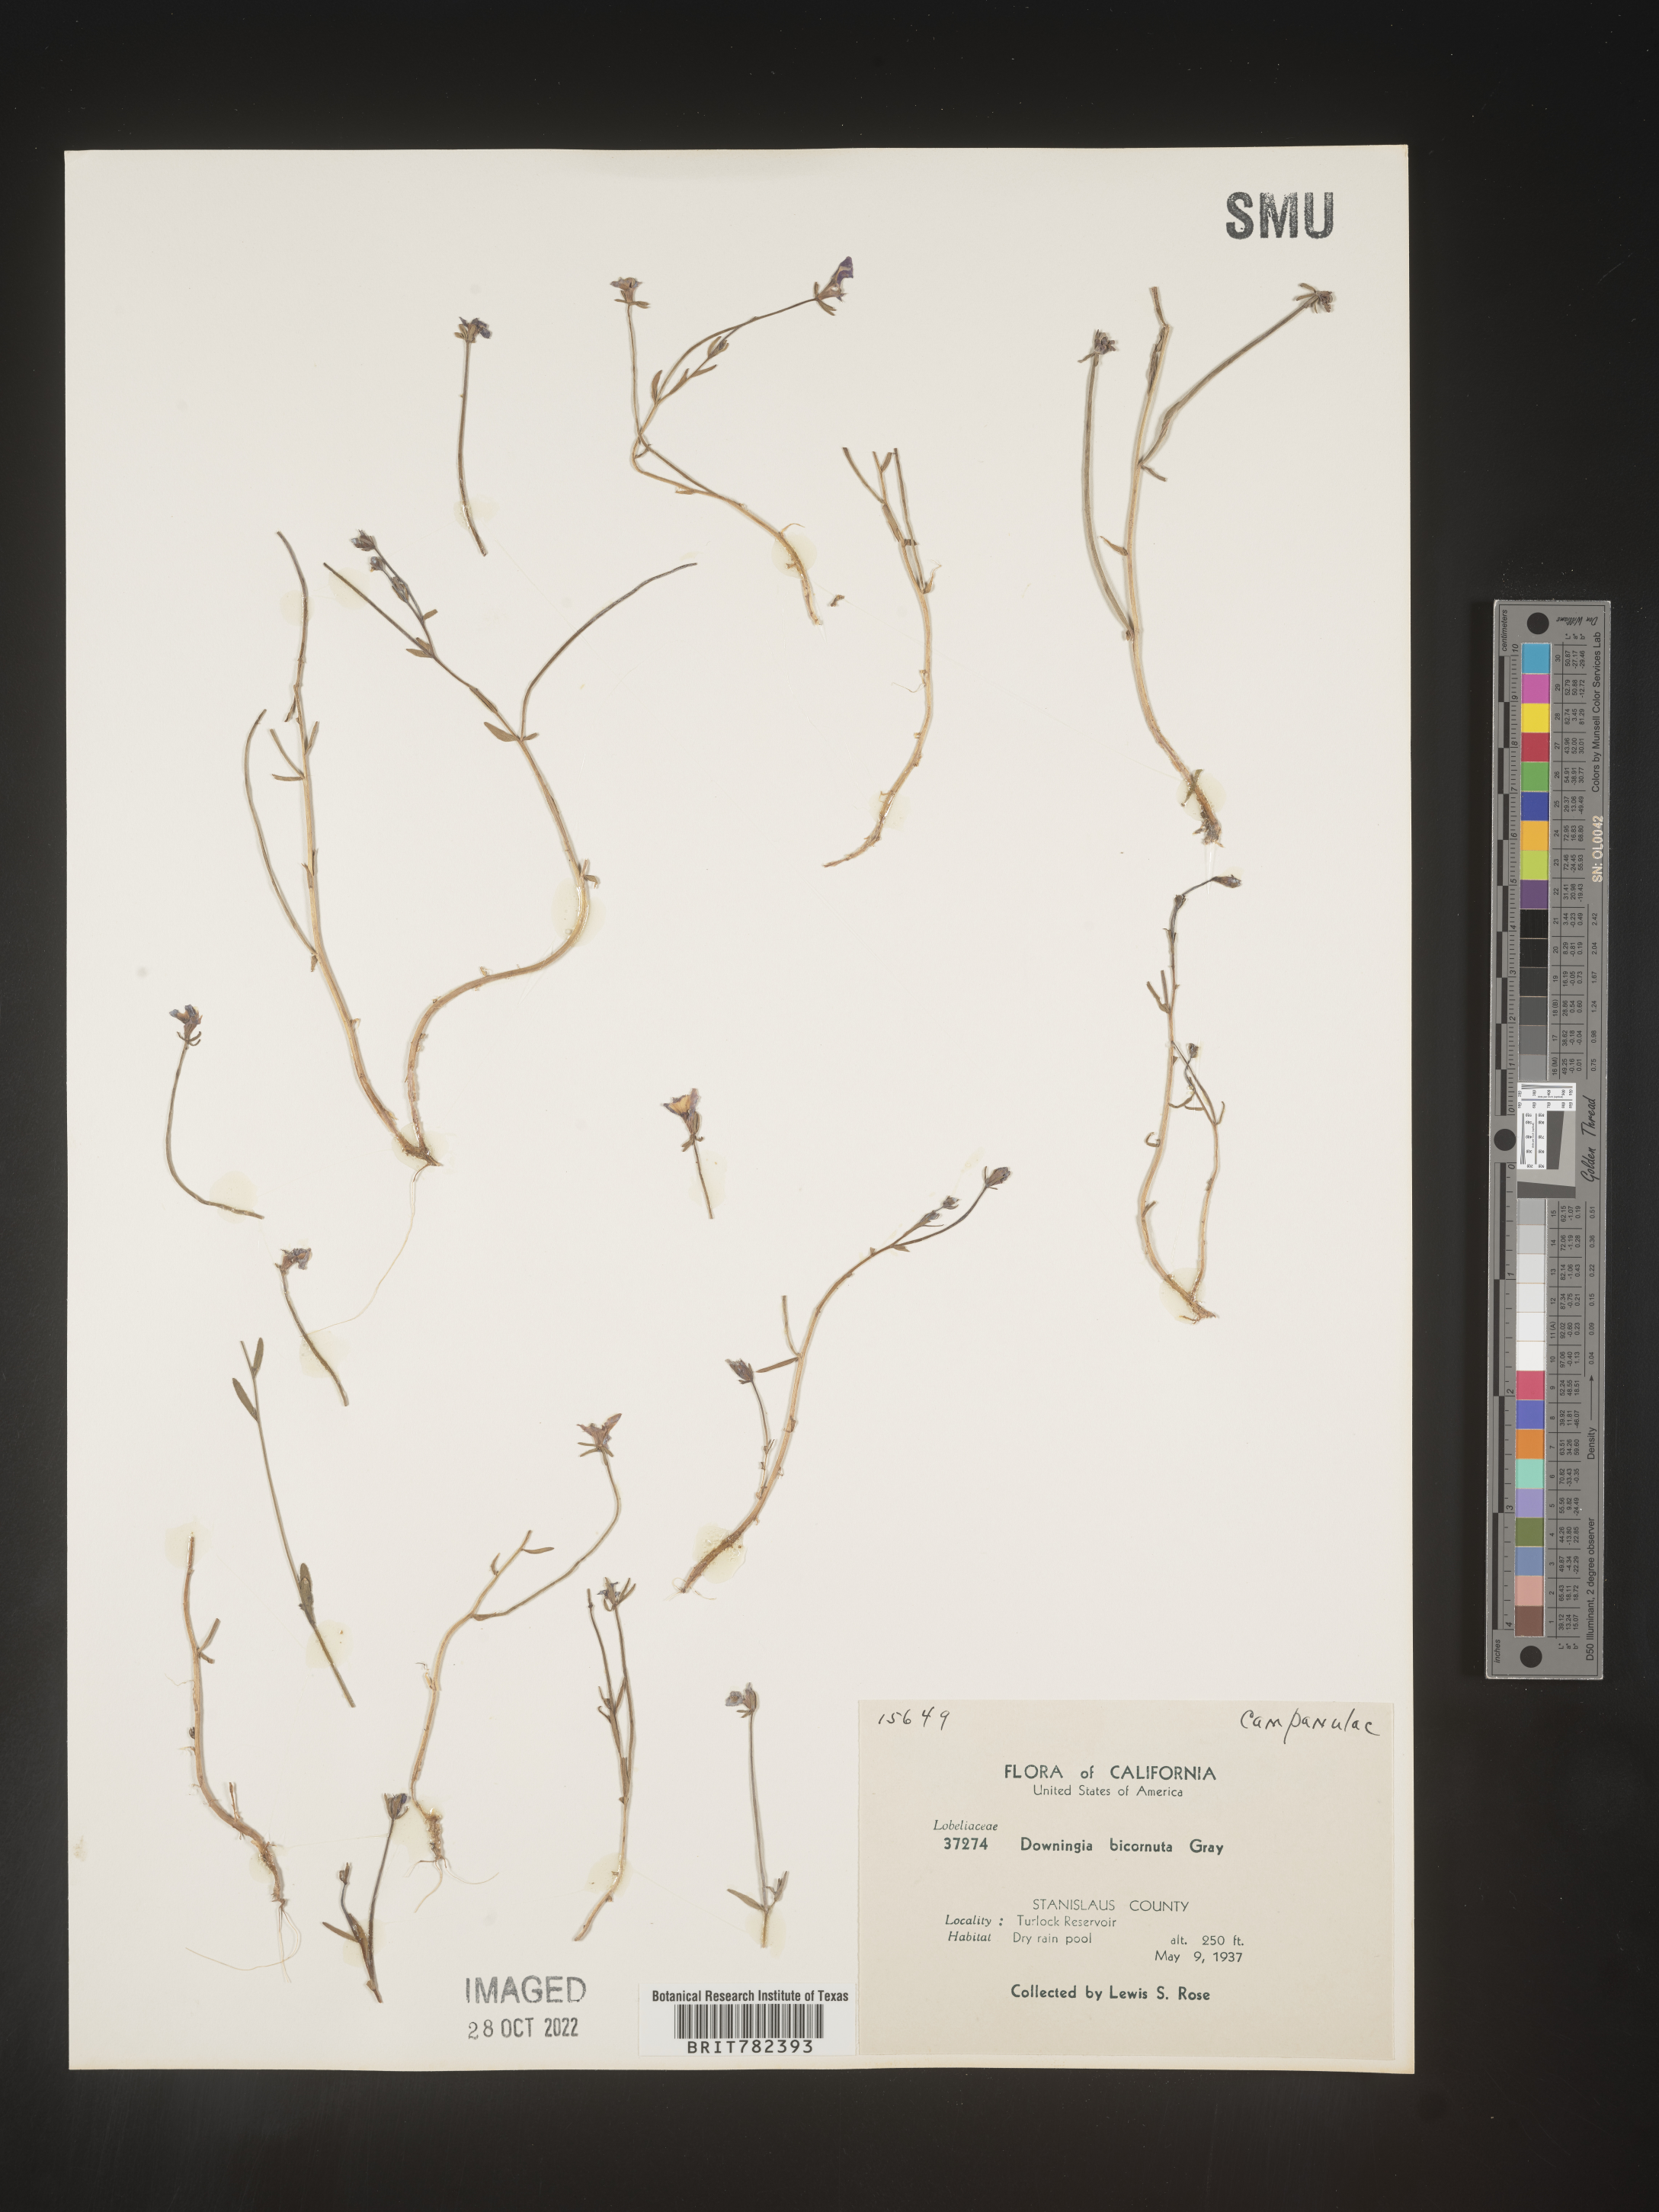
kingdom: Plantae
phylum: Tracheophyta
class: Magnoliopsida
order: Asterales
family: Campanulaceae
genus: Downingia
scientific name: Downingia
